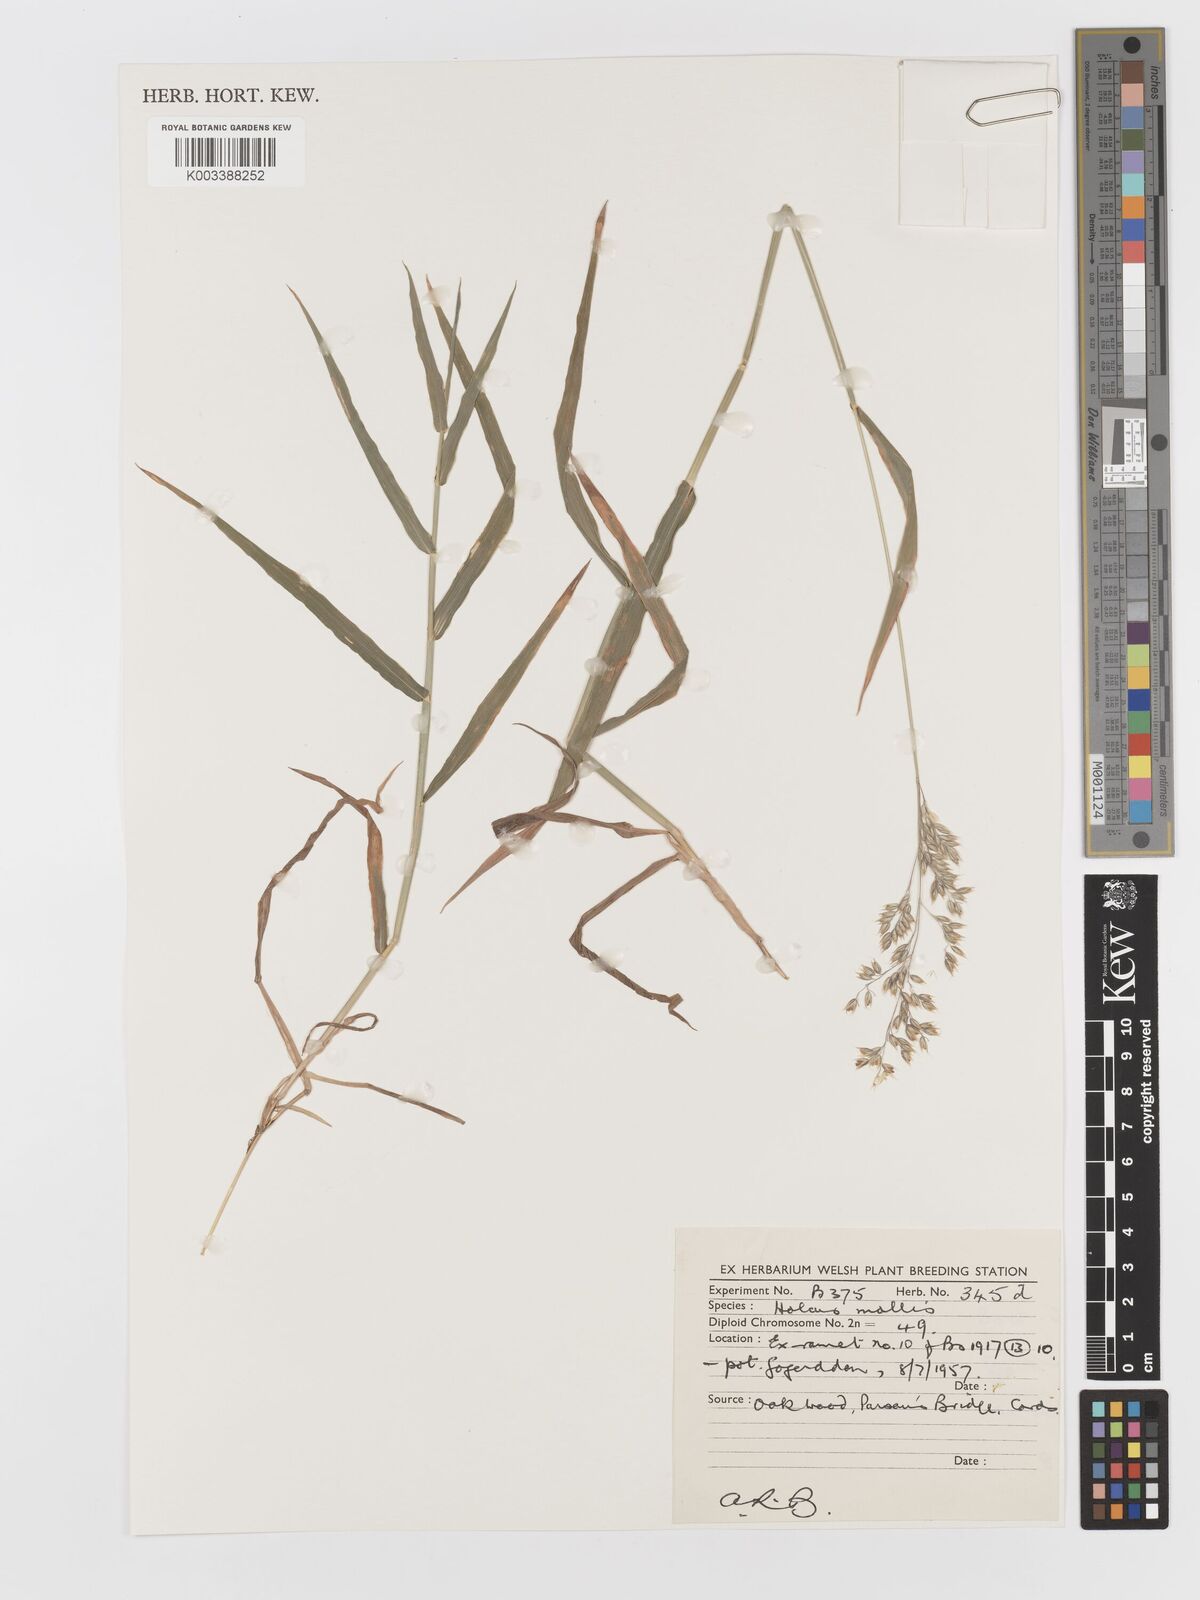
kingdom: Plantae
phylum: Tracheophyta
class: Liliopsida
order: Poales
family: Poaceae
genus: Holcus
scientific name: Holcus mollis
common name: Creeping velvetgrass
